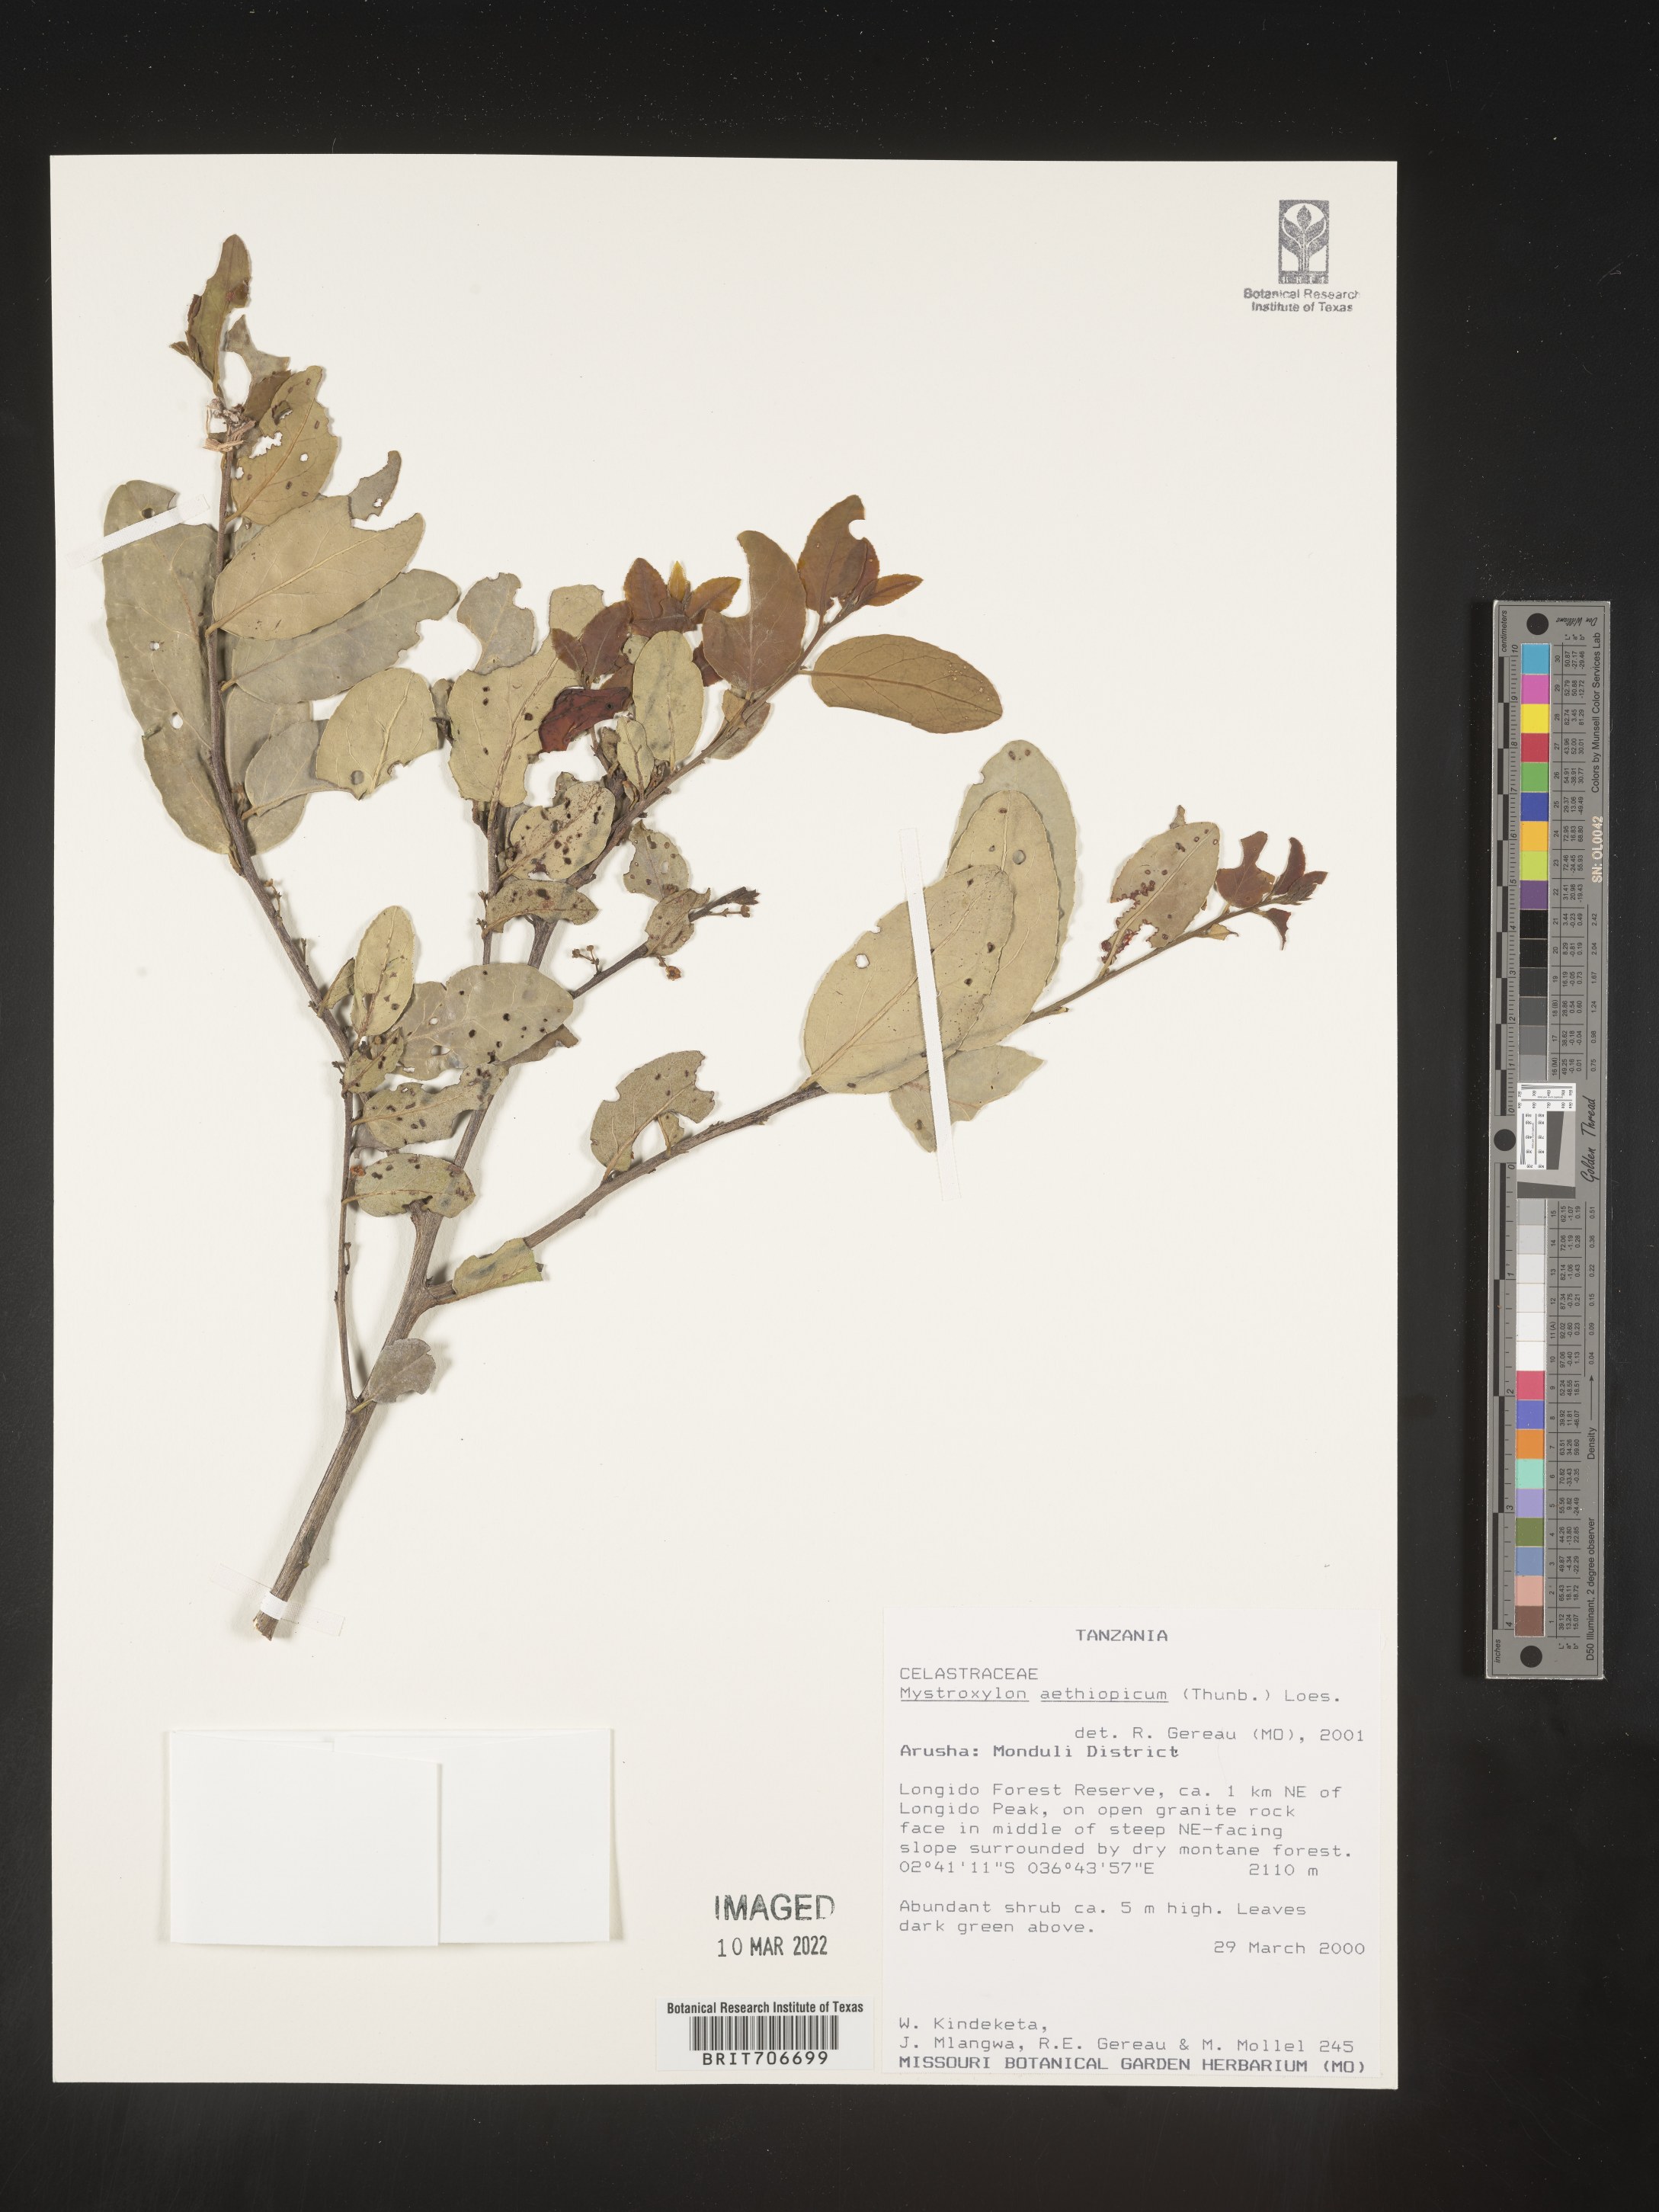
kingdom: Plantae
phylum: Tracheophyta
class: Magnoliopsida
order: Celastrales
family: Celastraceae
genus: Mystroxylon
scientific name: Mystroxylon
